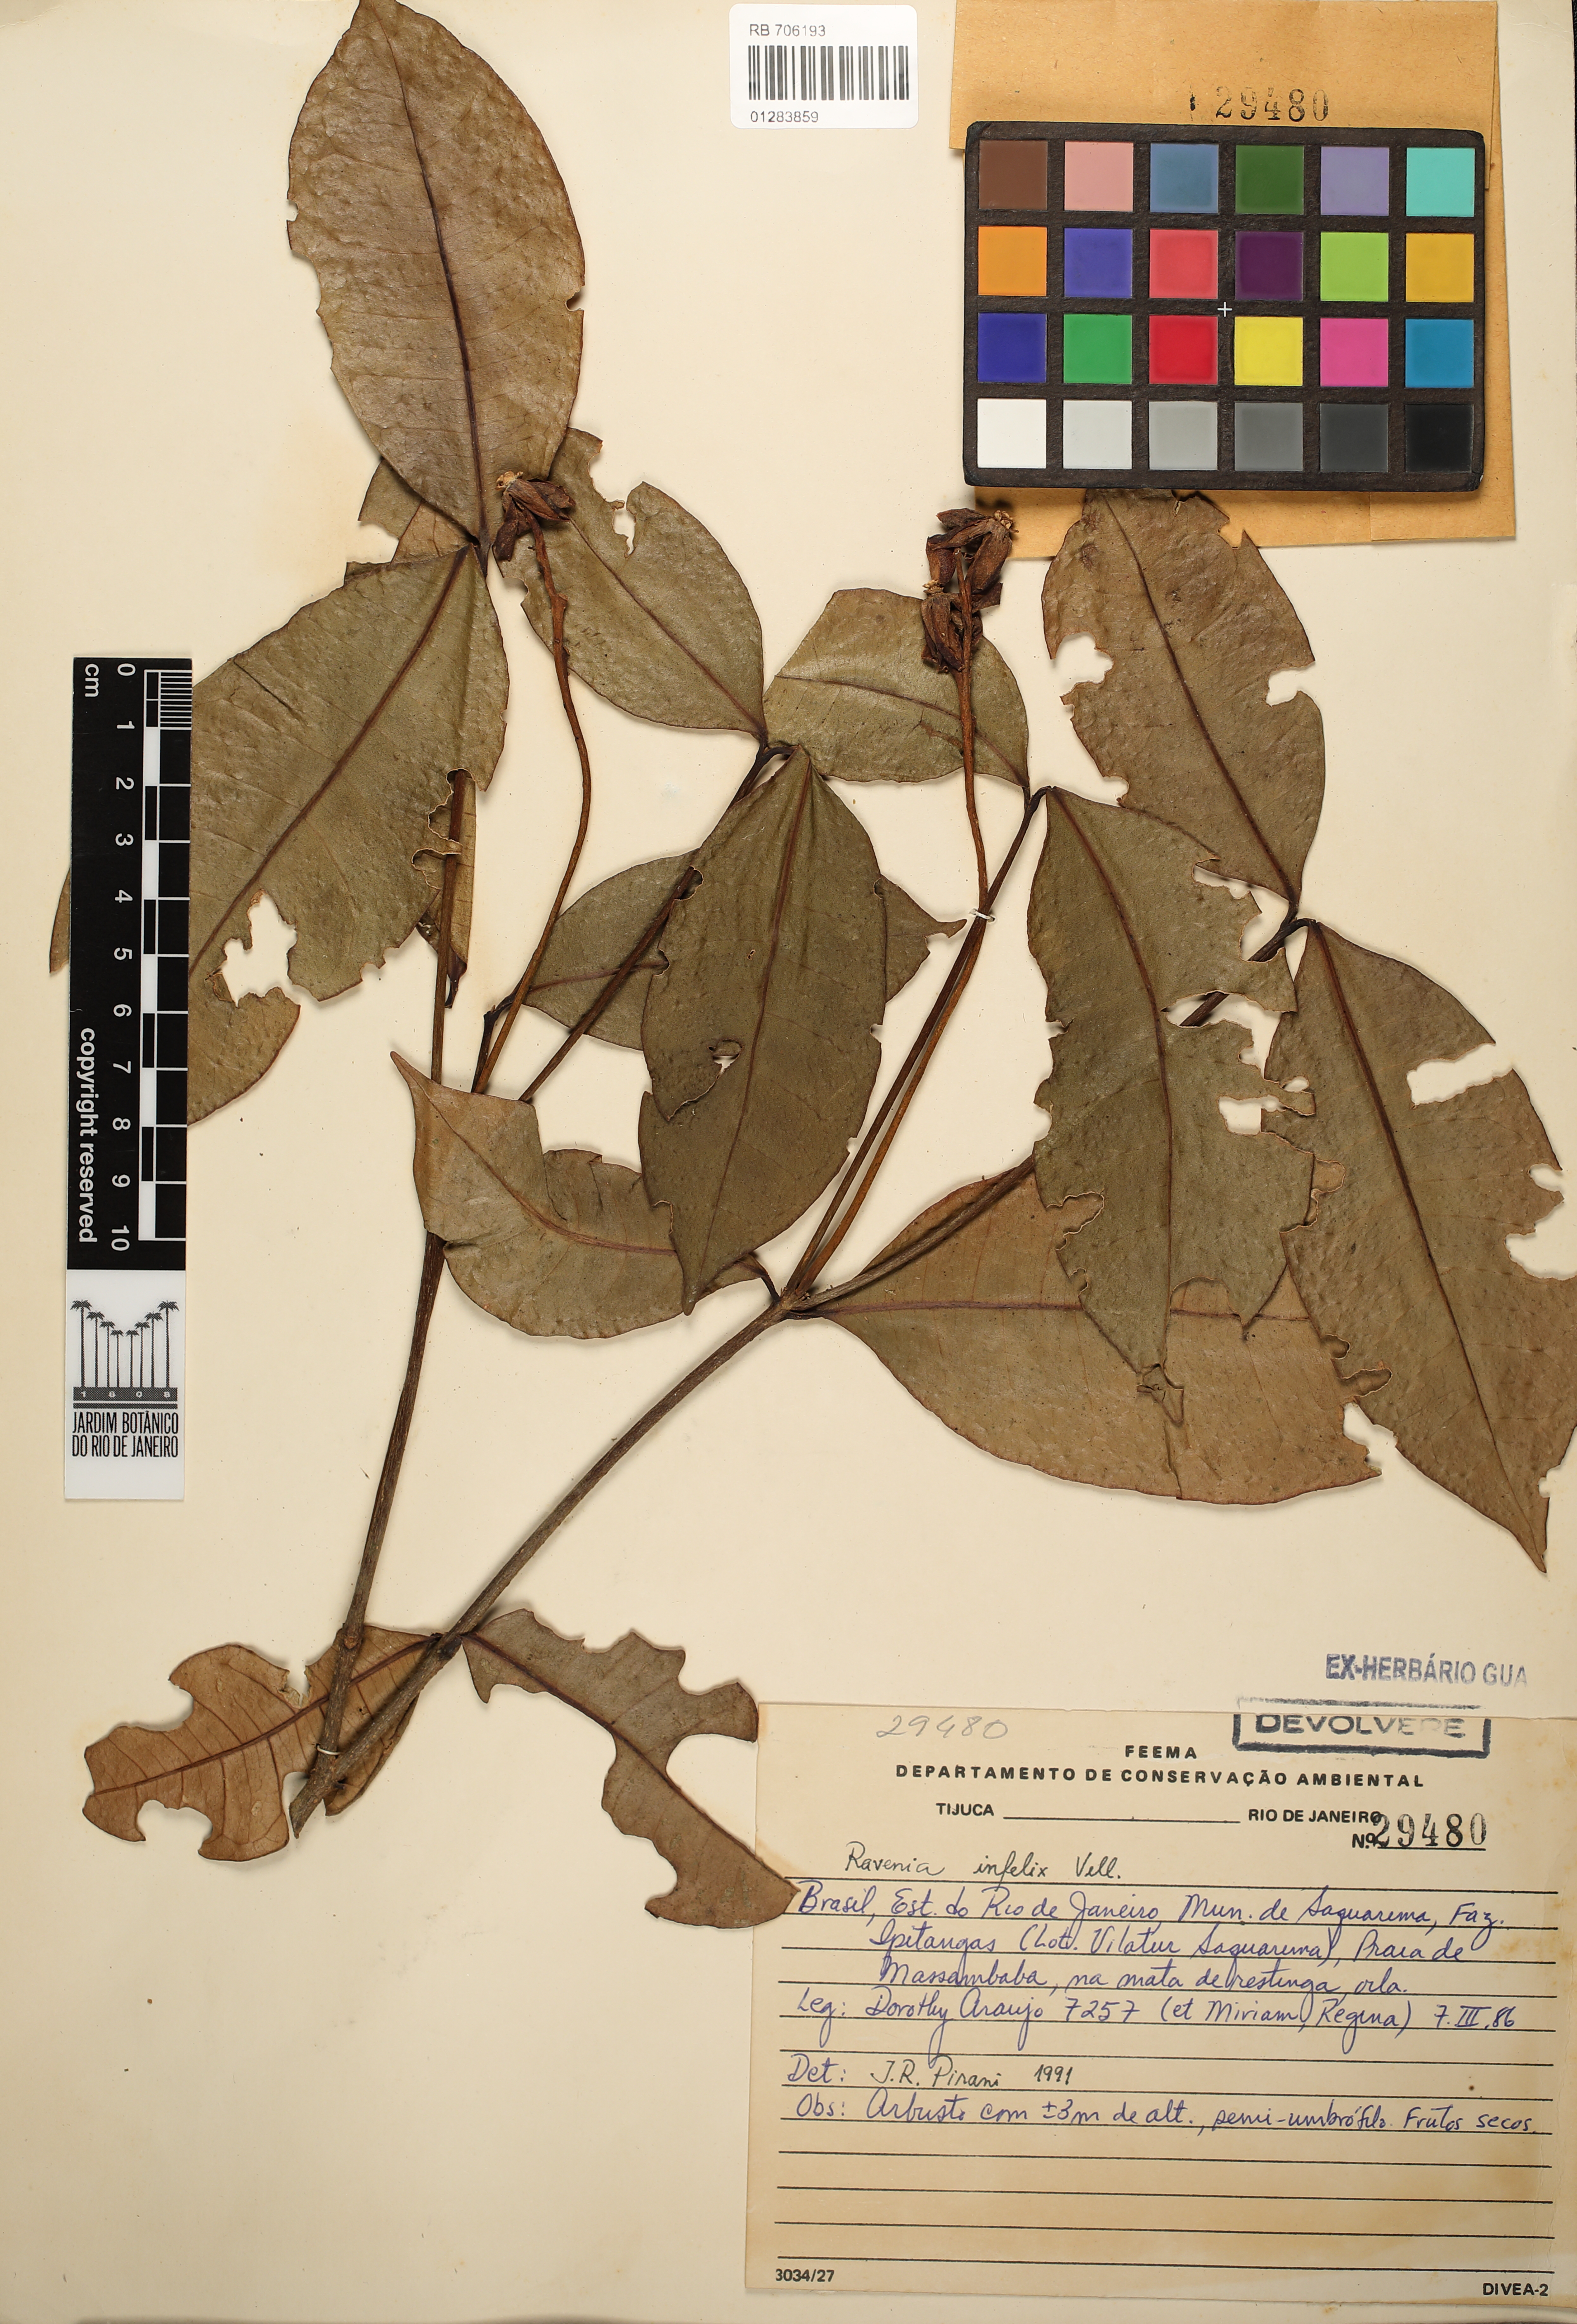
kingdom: Plantae
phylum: Tracheophyta
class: Magnoliopsida
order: Sapindales
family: Rutaceae
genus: Ravenia
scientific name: Ravenia infelix
